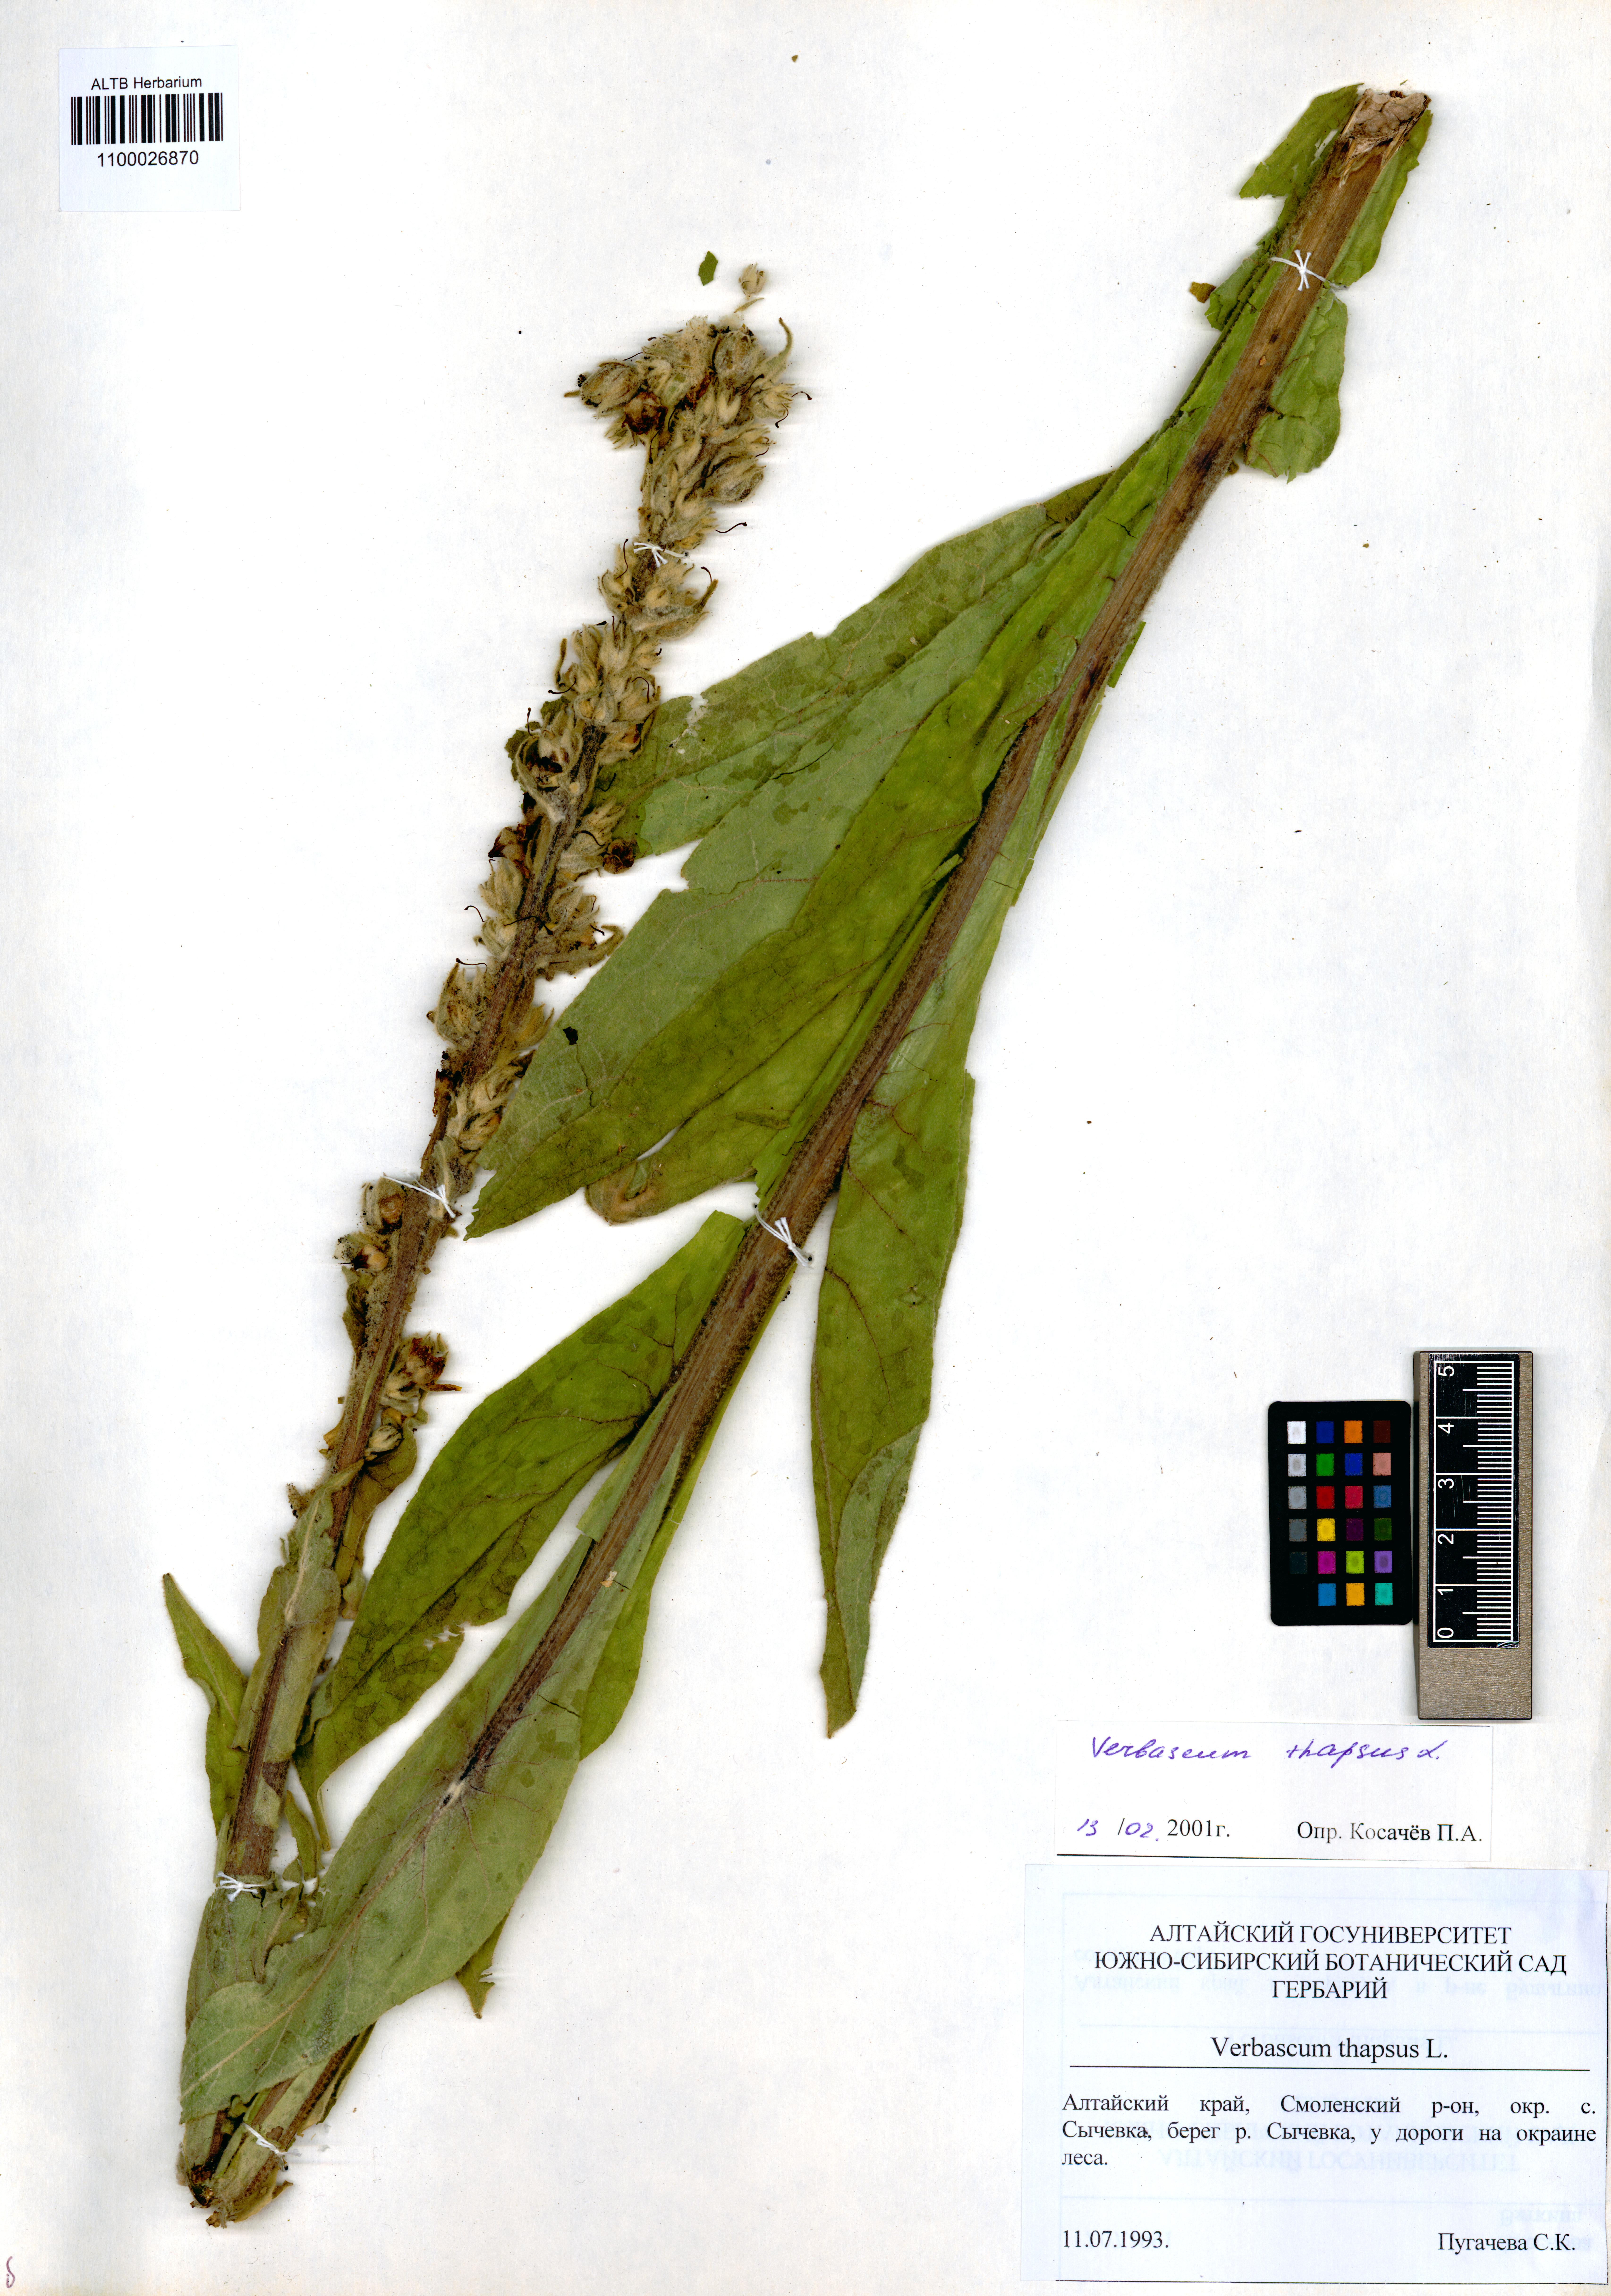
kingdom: Plantae
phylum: Tracheophyta
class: Magnoliopsida
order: Lamiales
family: Scrophulariaceae
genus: Verbascum
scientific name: Verbascum thapsus
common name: Common mullein
